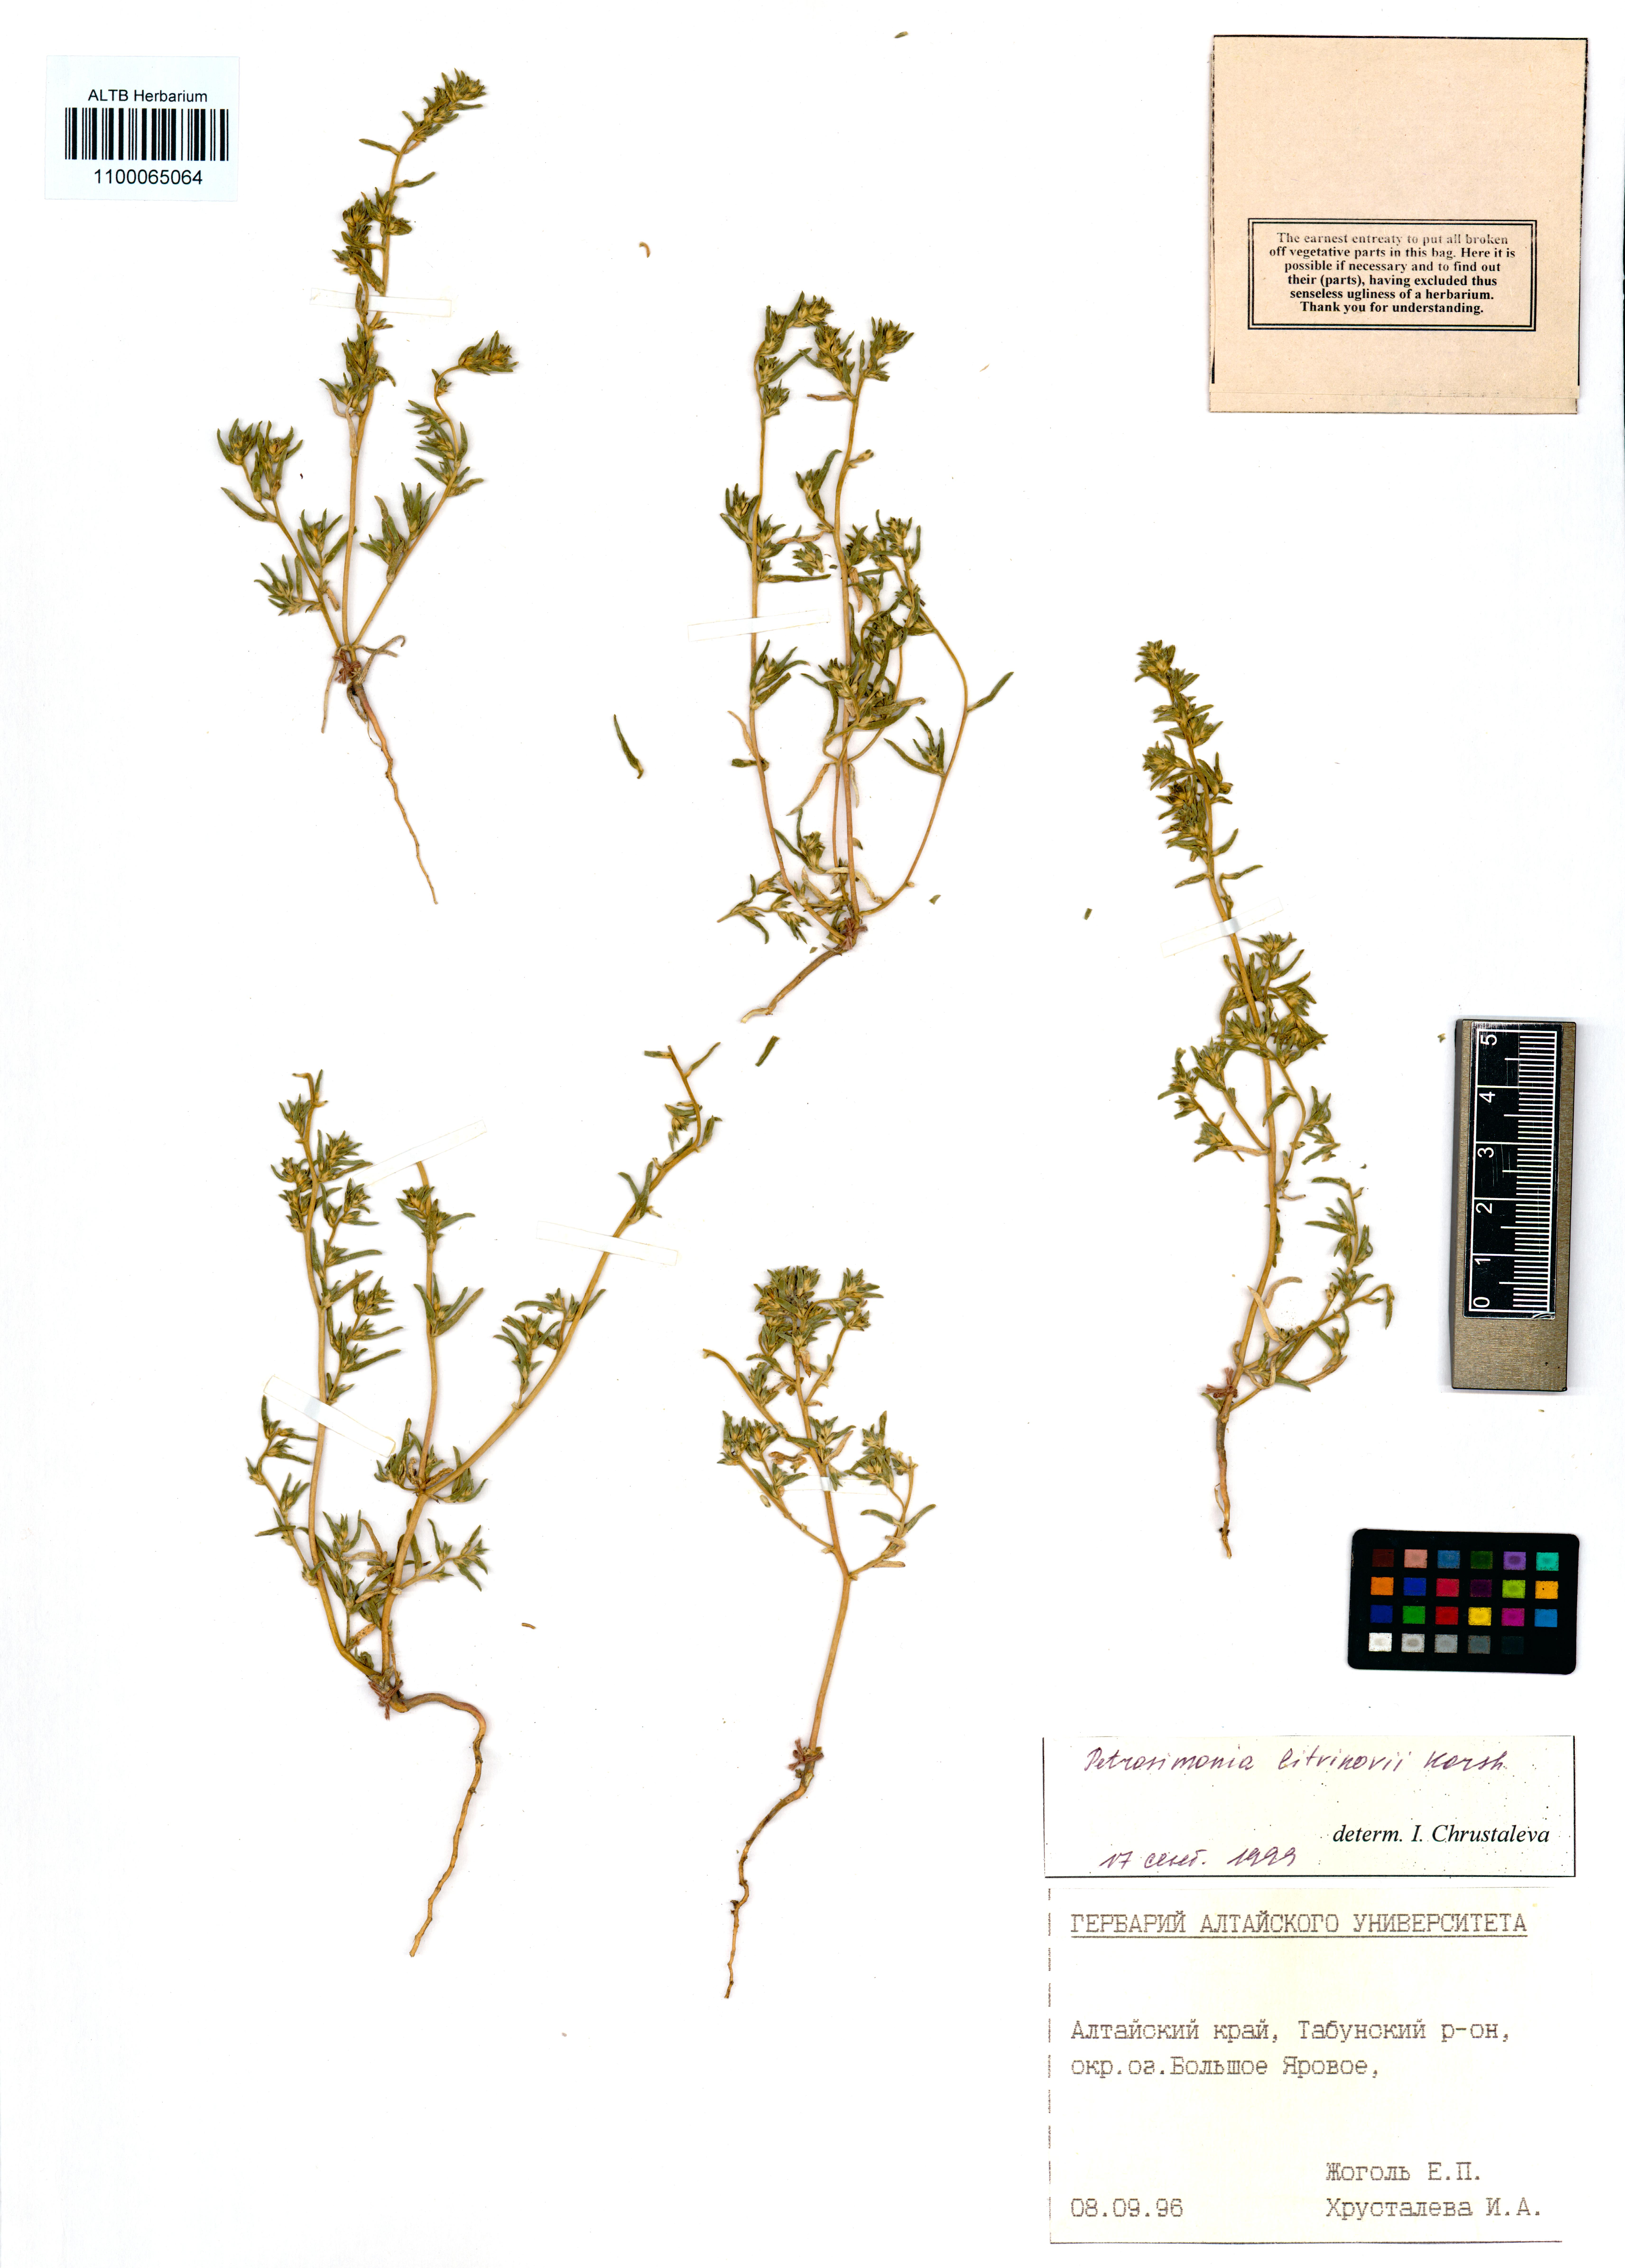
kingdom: Plantae
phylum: Tracheophyta
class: Magnoliopsida
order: Caryophyllales
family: Amaranthaceae
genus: Petrosimonia
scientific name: Petrosimonia litvinowi
